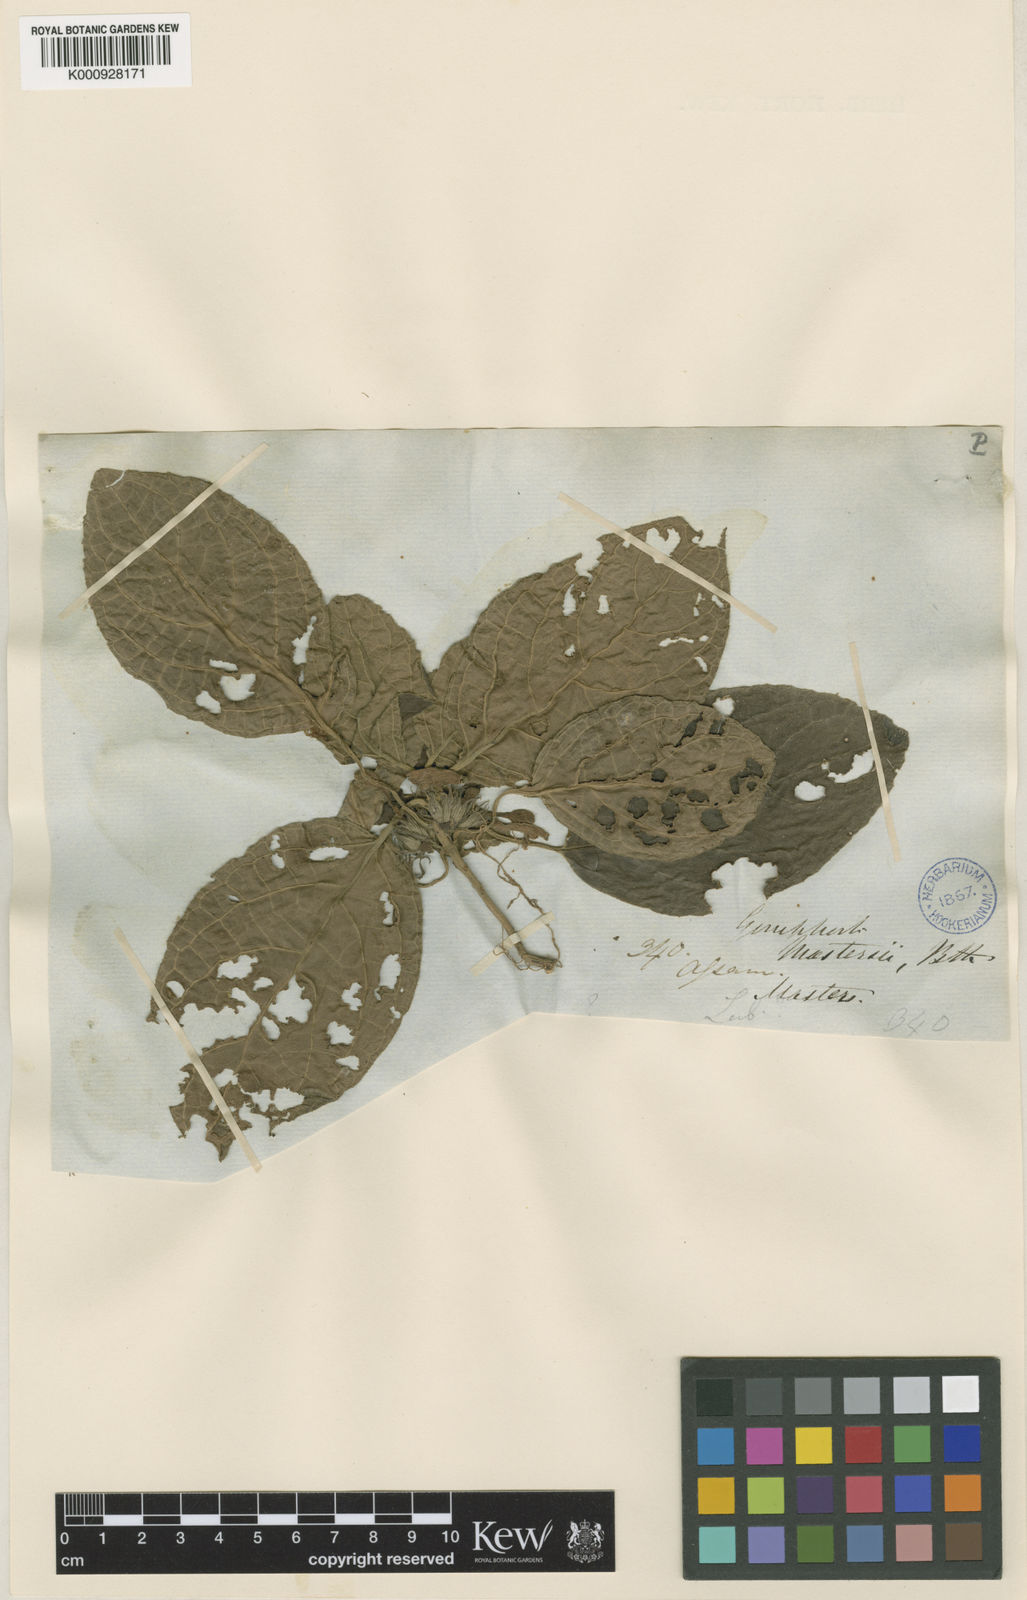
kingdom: Plantae
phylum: Tracheophyta
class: Magnoliopsida
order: Lamiales
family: Lamiaceae
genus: Gomphostemma
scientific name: Gomphostemma mastersii
